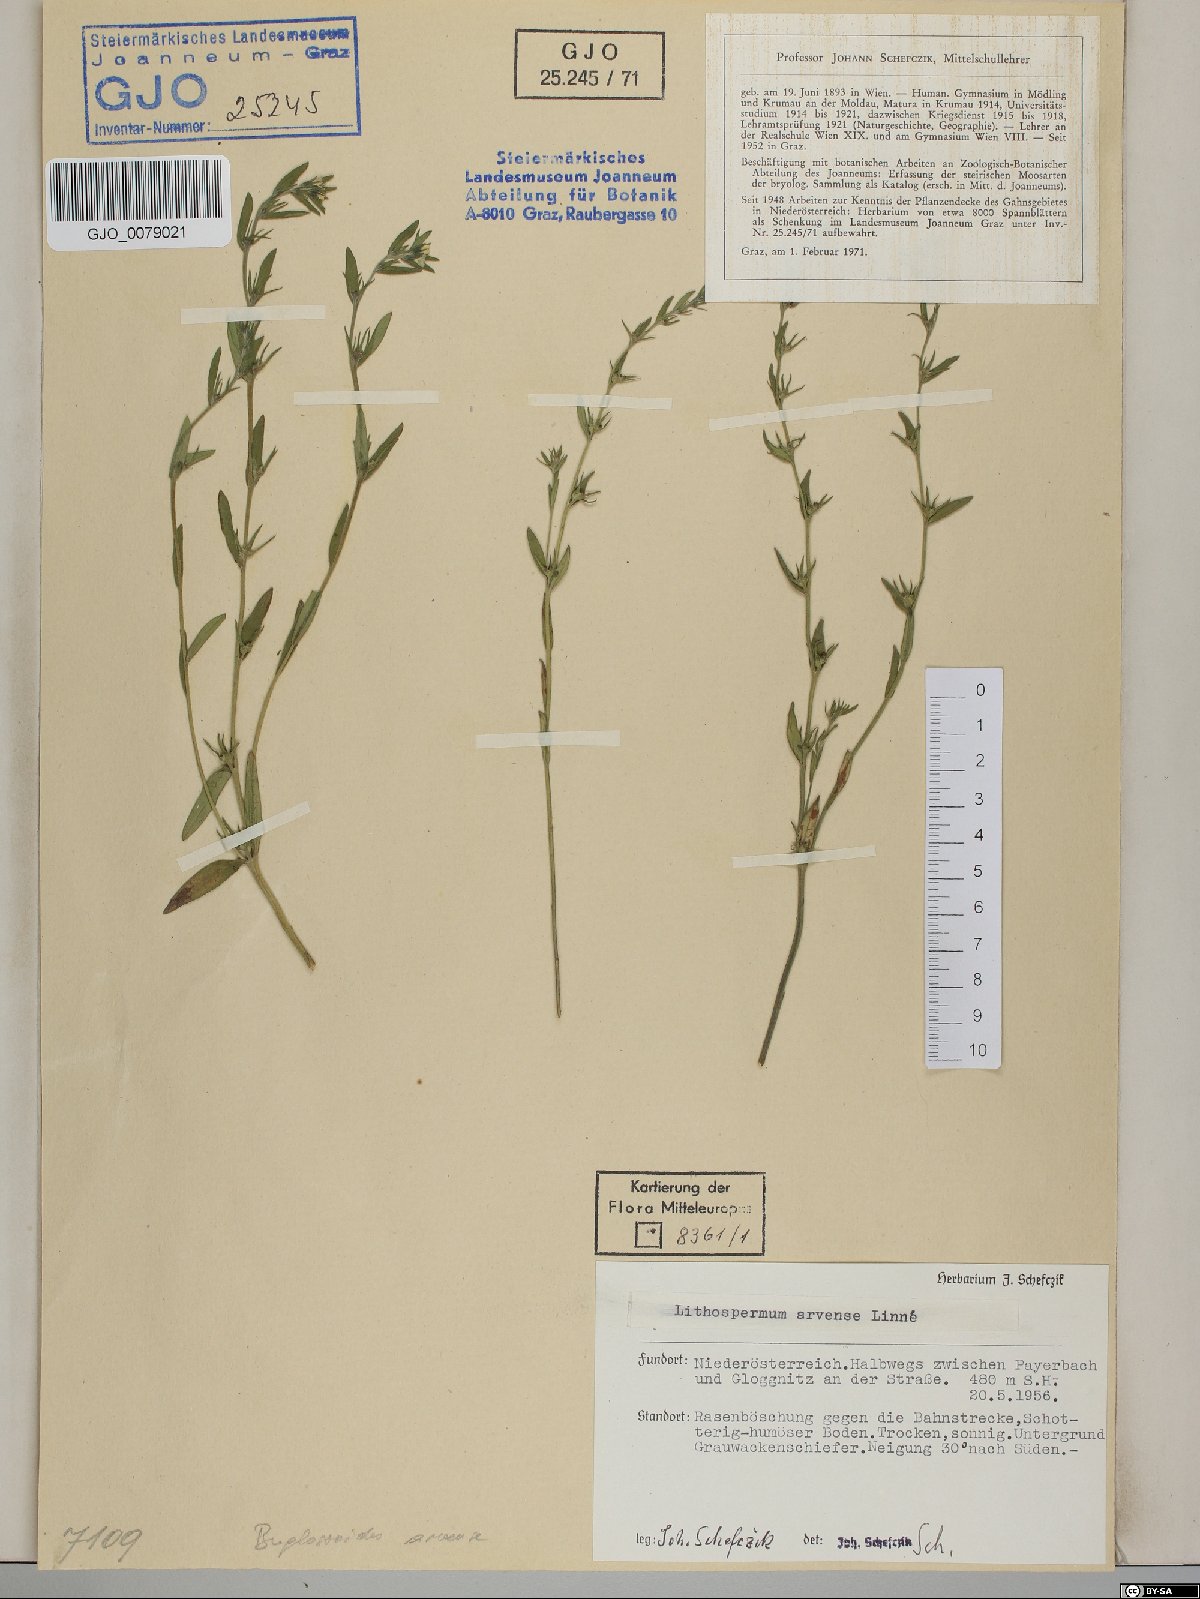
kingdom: Plantae
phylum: Tracheophyta
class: Magnoliopsida
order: Boraginales
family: Boraginaceae
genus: Buglossoides
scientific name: Buglossoides arvensis
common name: Corn gromwell
